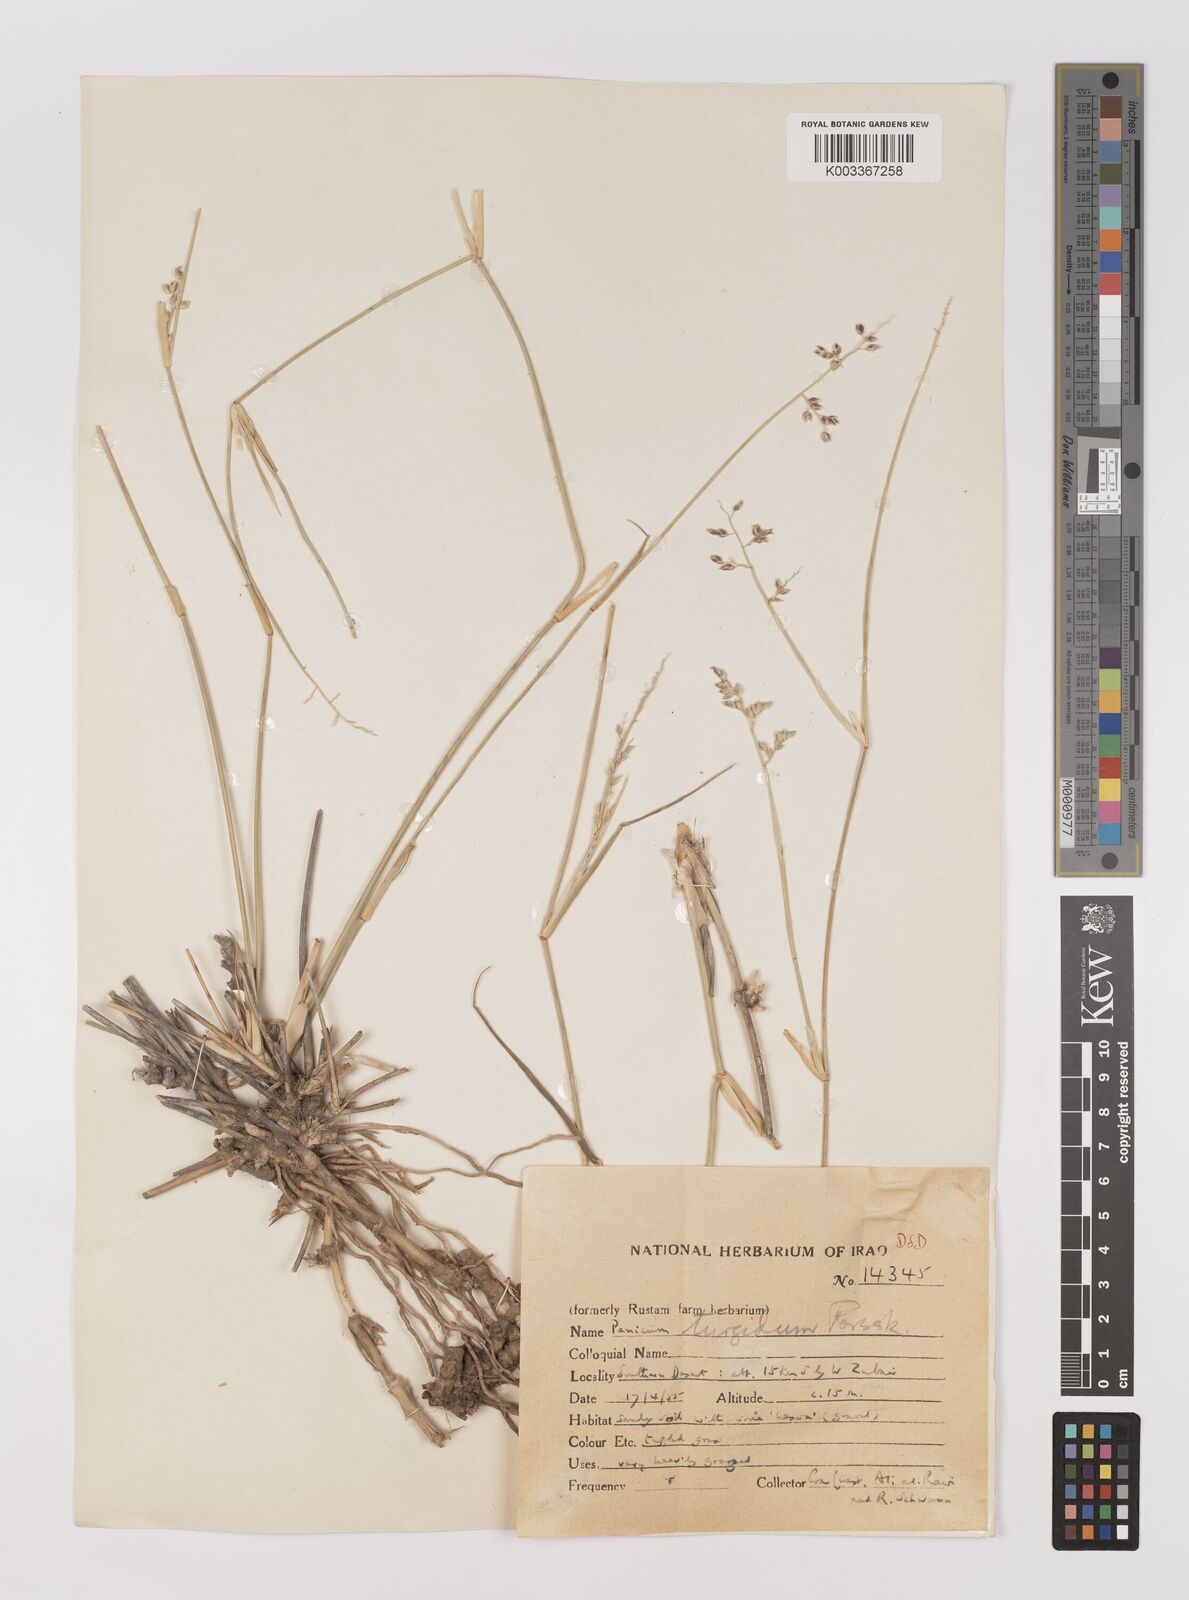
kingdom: Plantae
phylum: Tracheophyta
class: Liliopsida
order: Poales
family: Poaceae
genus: Panicum
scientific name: Panicum turgidum
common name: Desert grass
